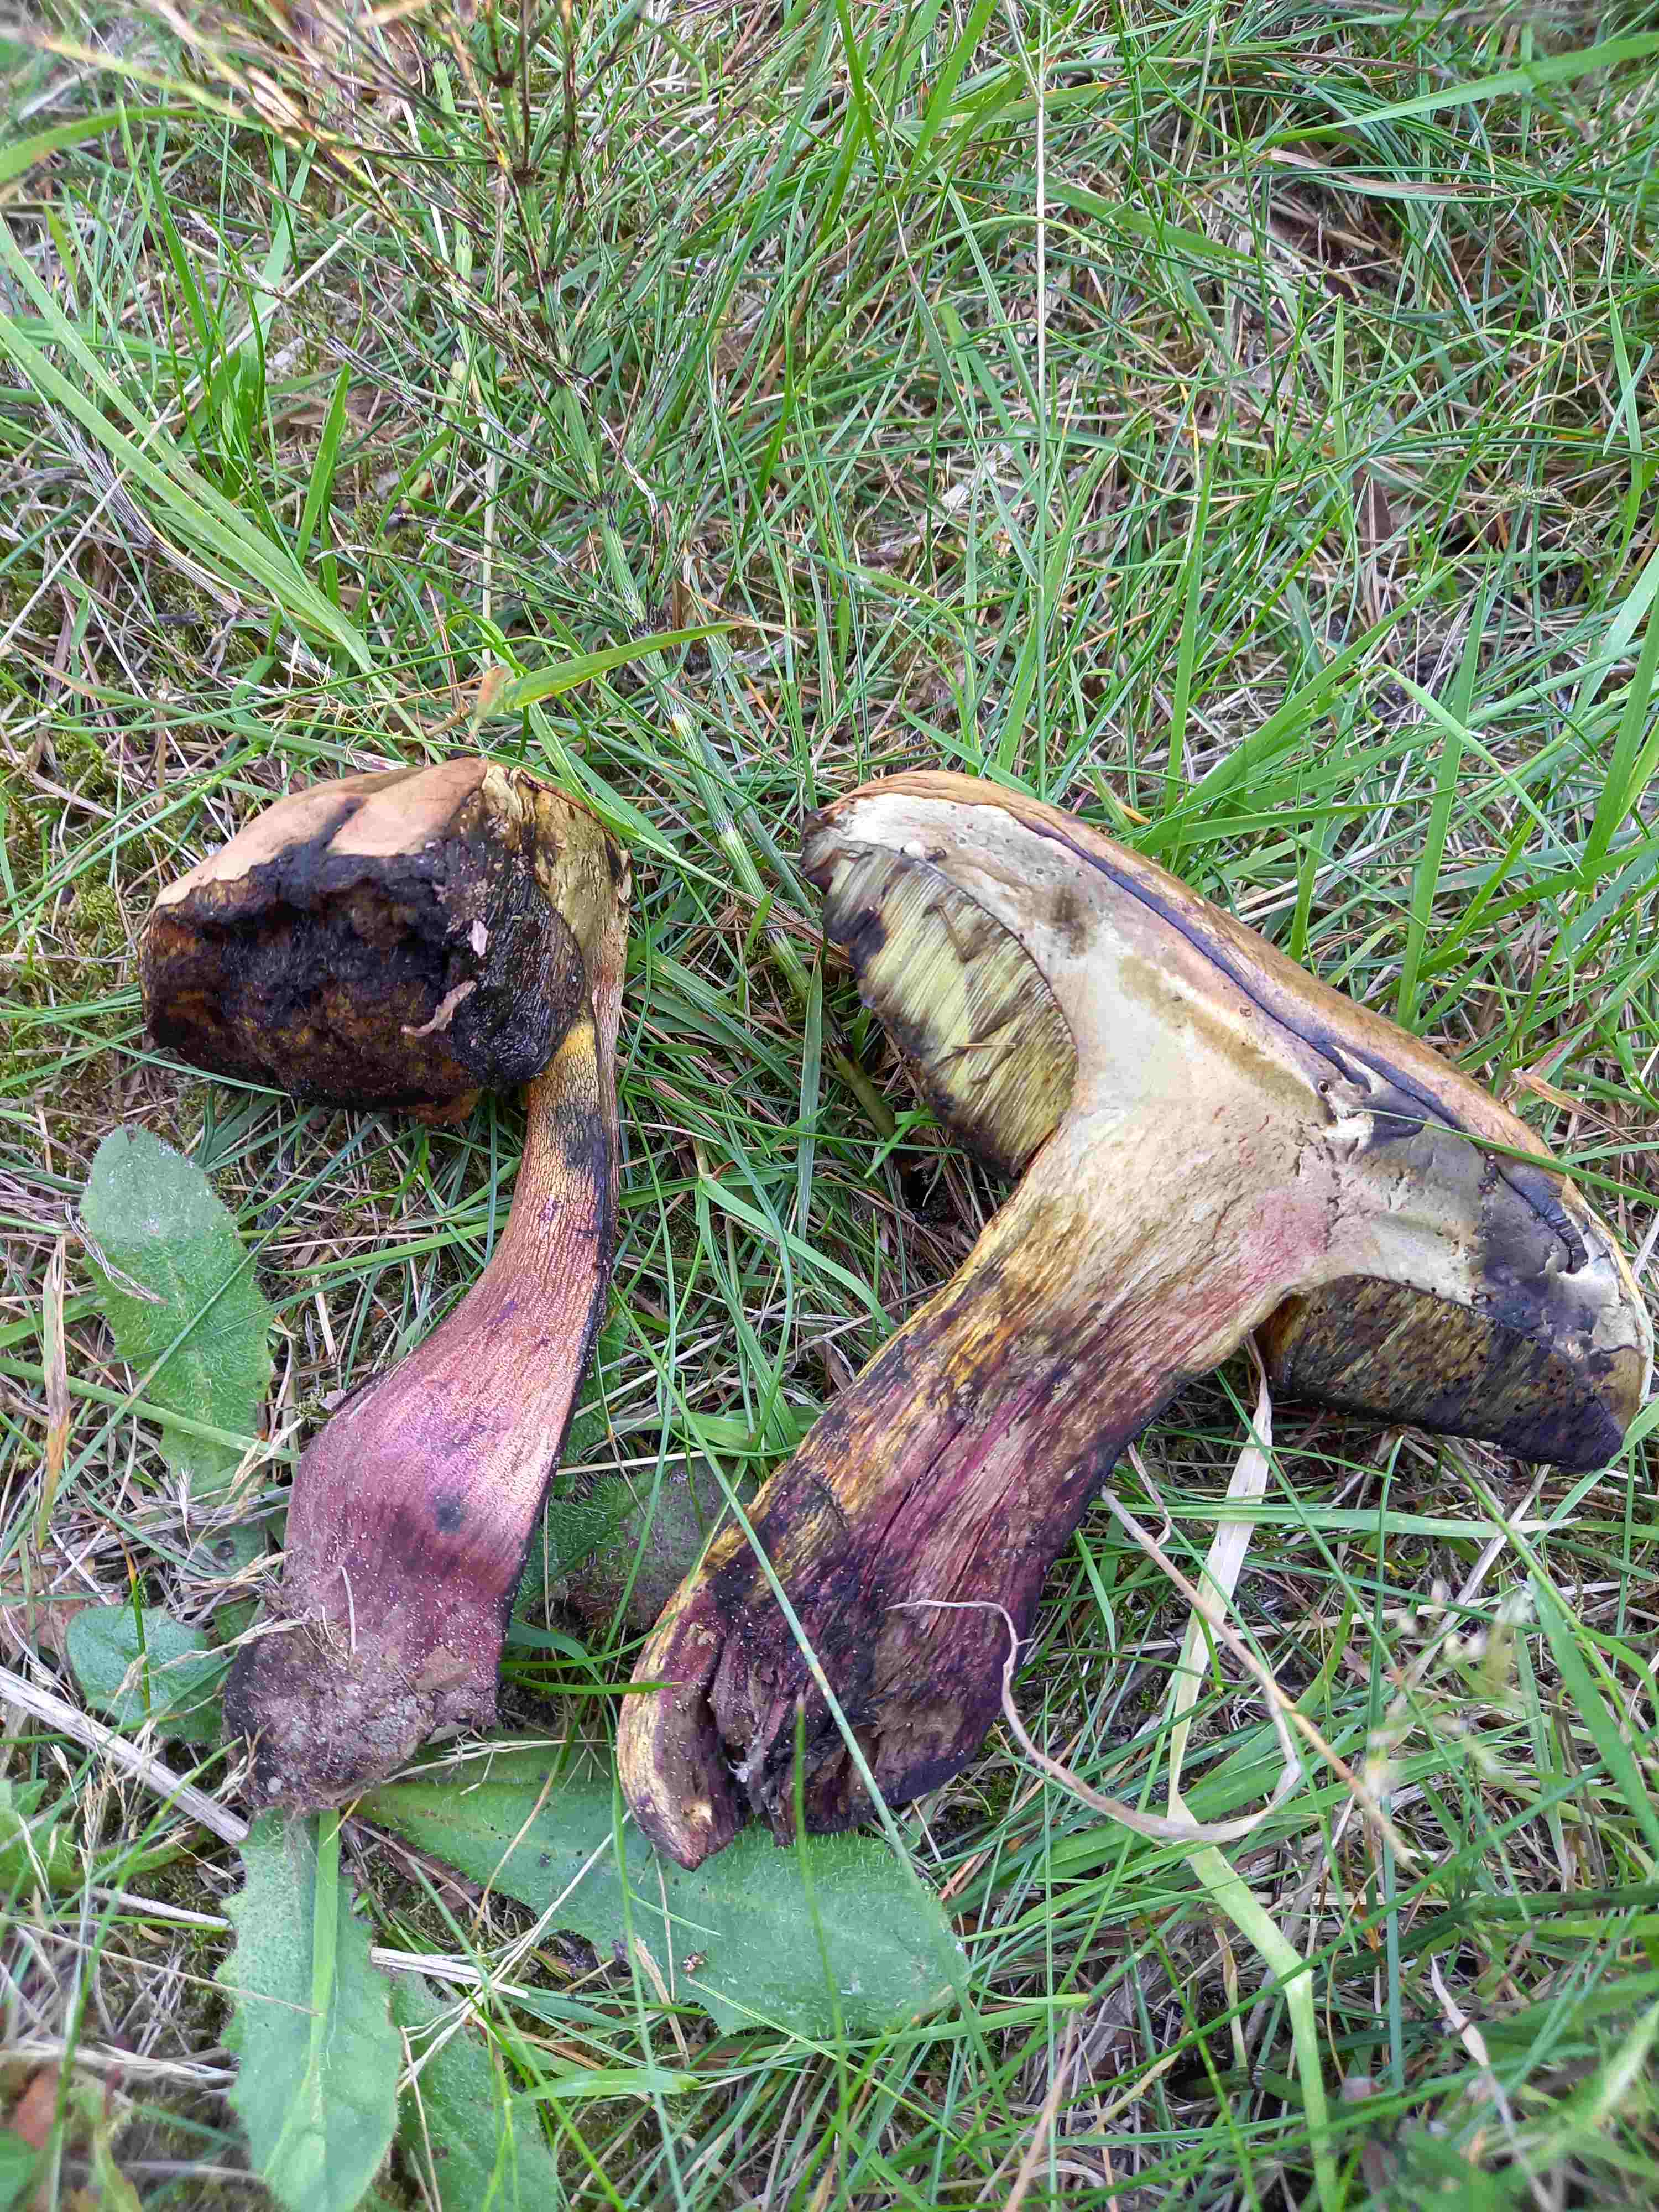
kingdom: Fungi
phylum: Basidiomycota
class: Agaricomycetes
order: Boletales
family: Boletaceae
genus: Suillellus
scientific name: Suillellus luridus
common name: netstokket indigorørhat
